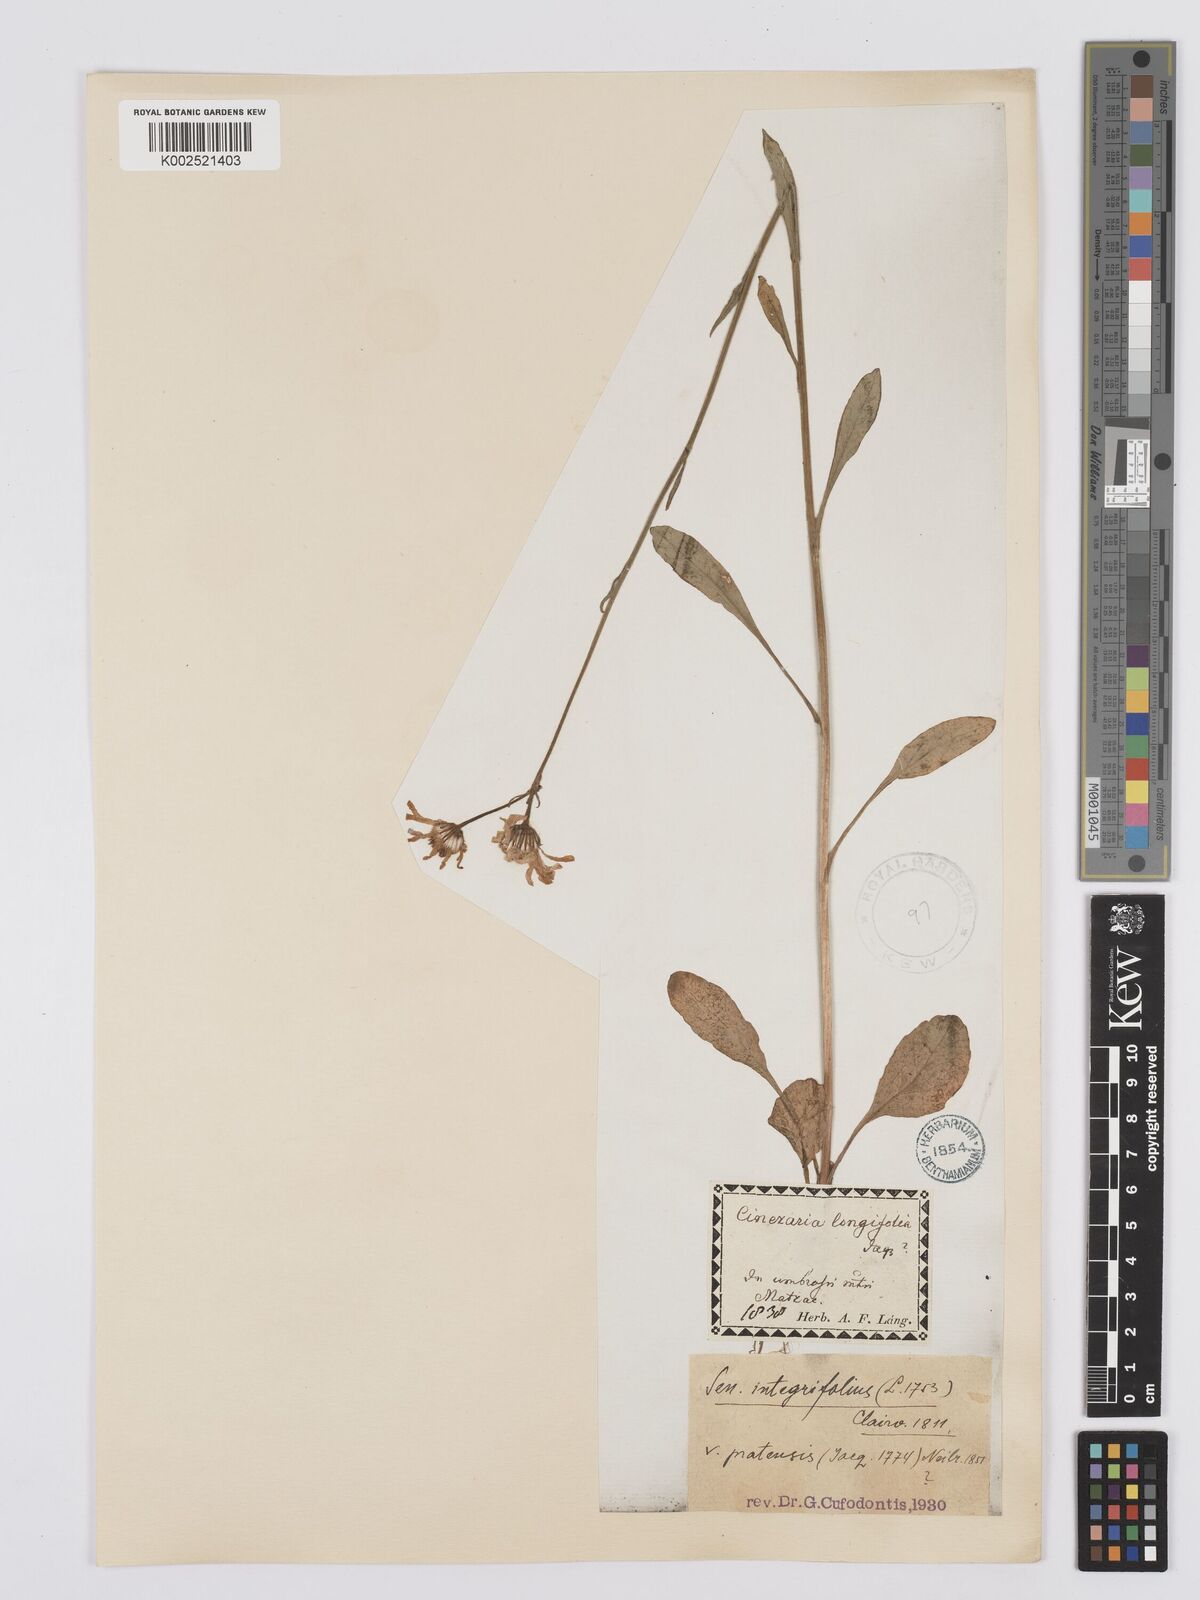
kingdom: Plantae
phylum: Tracheophyta
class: Magnoliopsida
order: Asterales
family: Asteraceae
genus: Tephroseris
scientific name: Tephroseris helenitis
